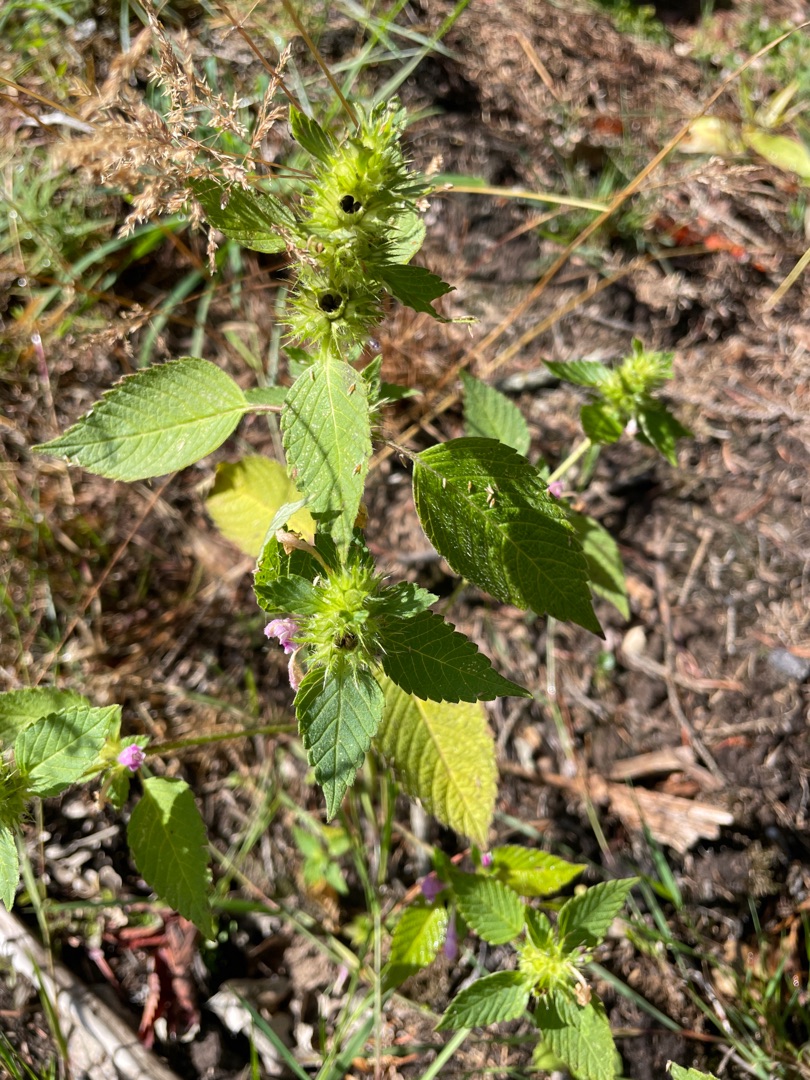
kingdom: Plantae
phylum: Tracheophyta
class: Magnoliopsida
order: Lamiales
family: Lamiaceae
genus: Galeopsis
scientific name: Galeopsis
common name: Hanekroslægten
